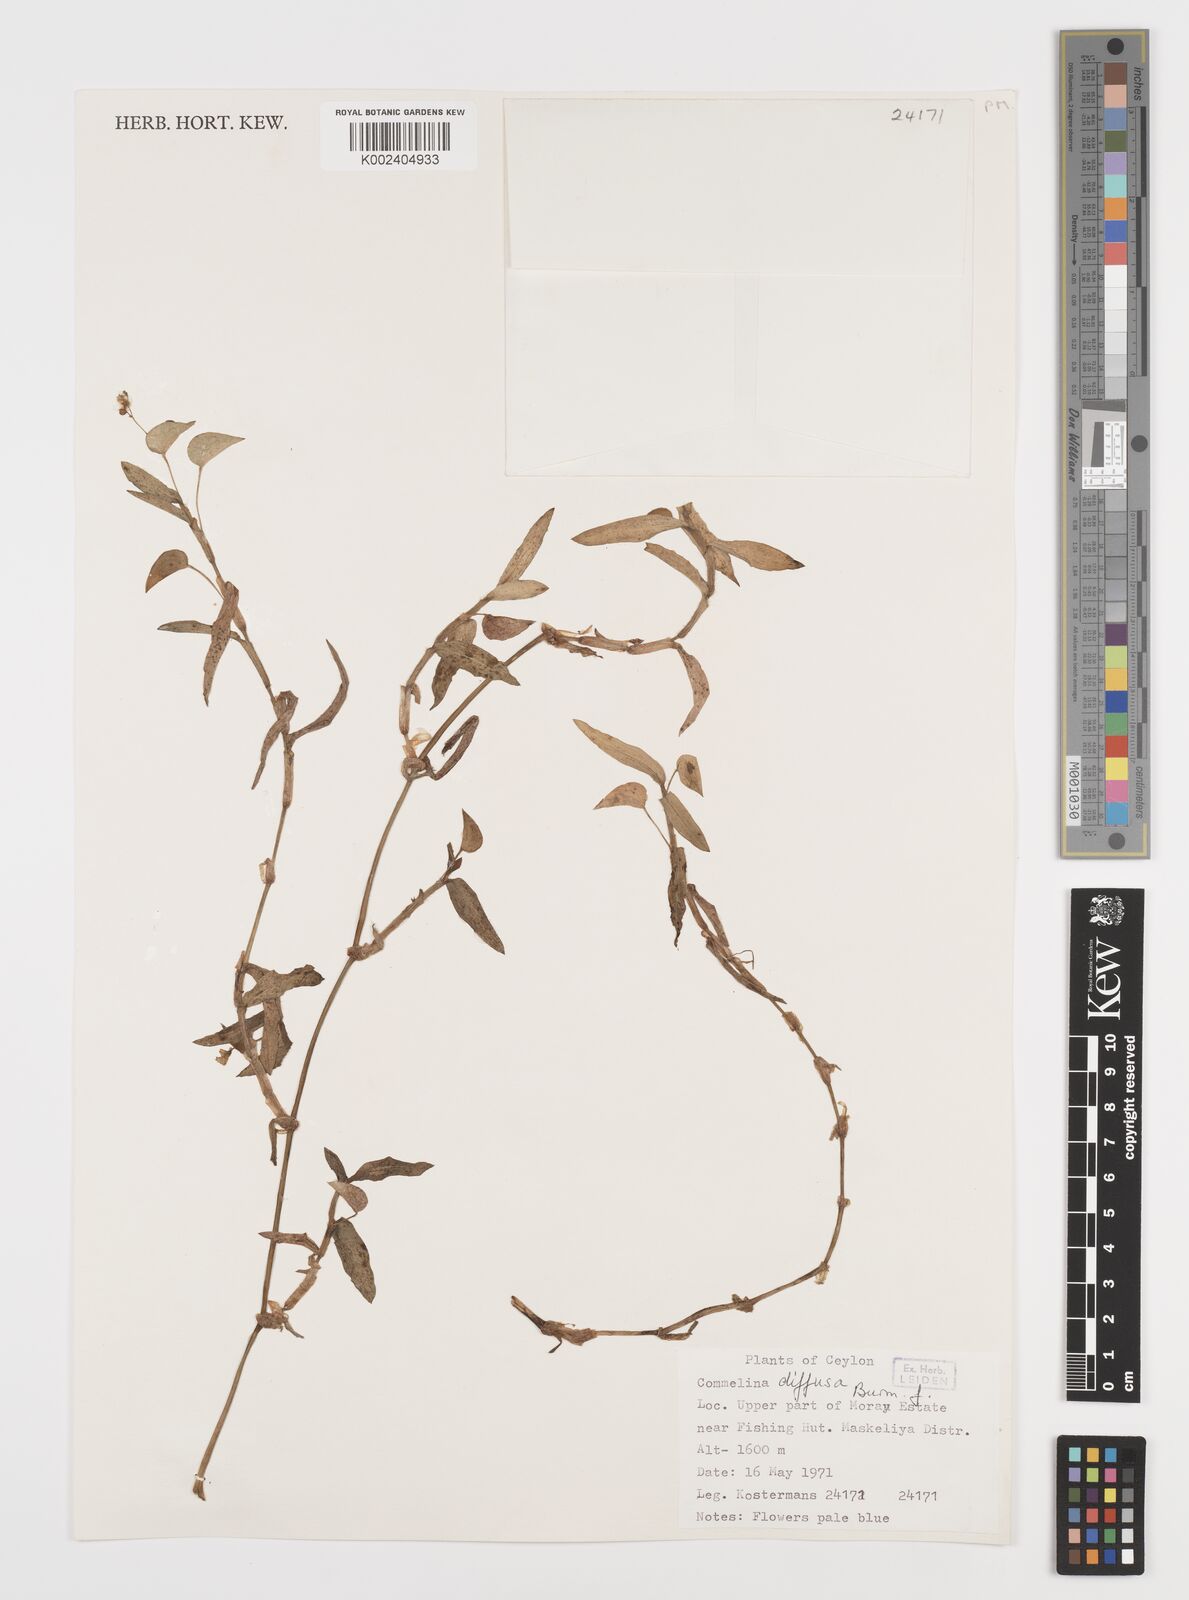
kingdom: Plantae
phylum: Tracheophyta
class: Liliopsida
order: Commelinales
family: Commelinaceae
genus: Murdannia
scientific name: Murdannia nudiflora
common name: Nakedstem dewflower
